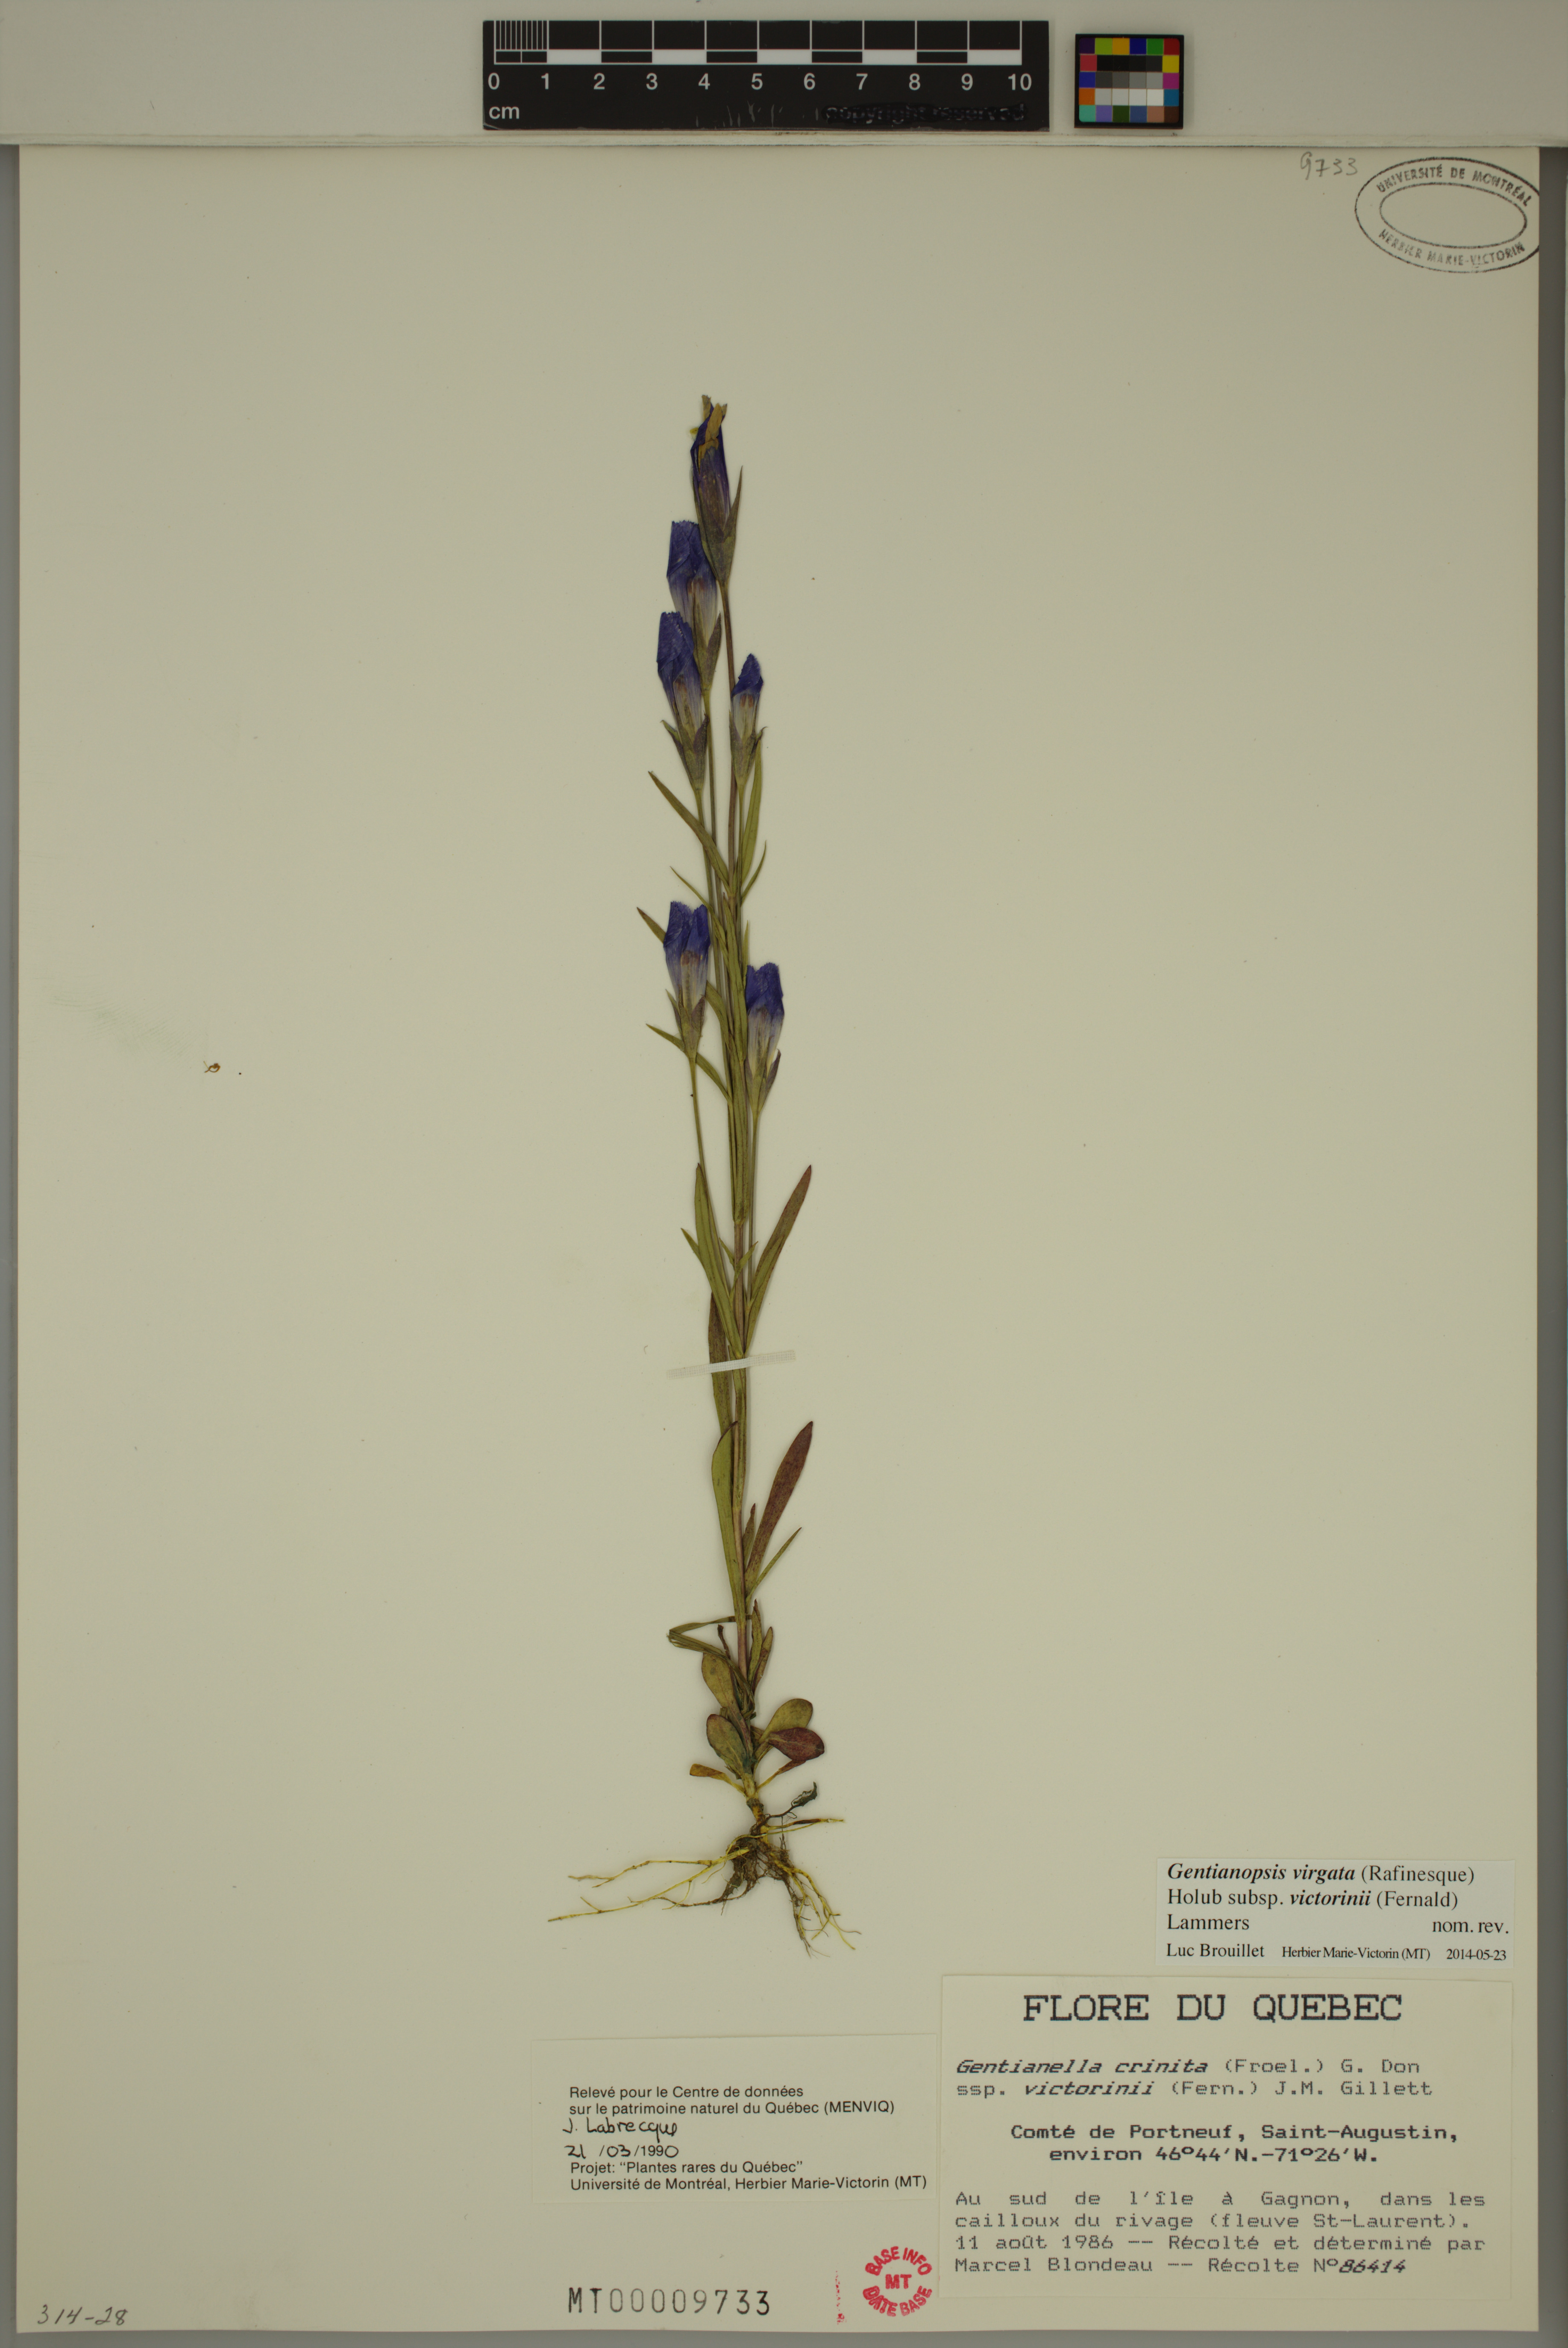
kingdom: Plantae
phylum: Tracheophyta
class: Magnoliopsida
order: Gentianales
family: Gentianaceae
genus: Gentianopsis
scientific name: Gentianopsis victorinii
